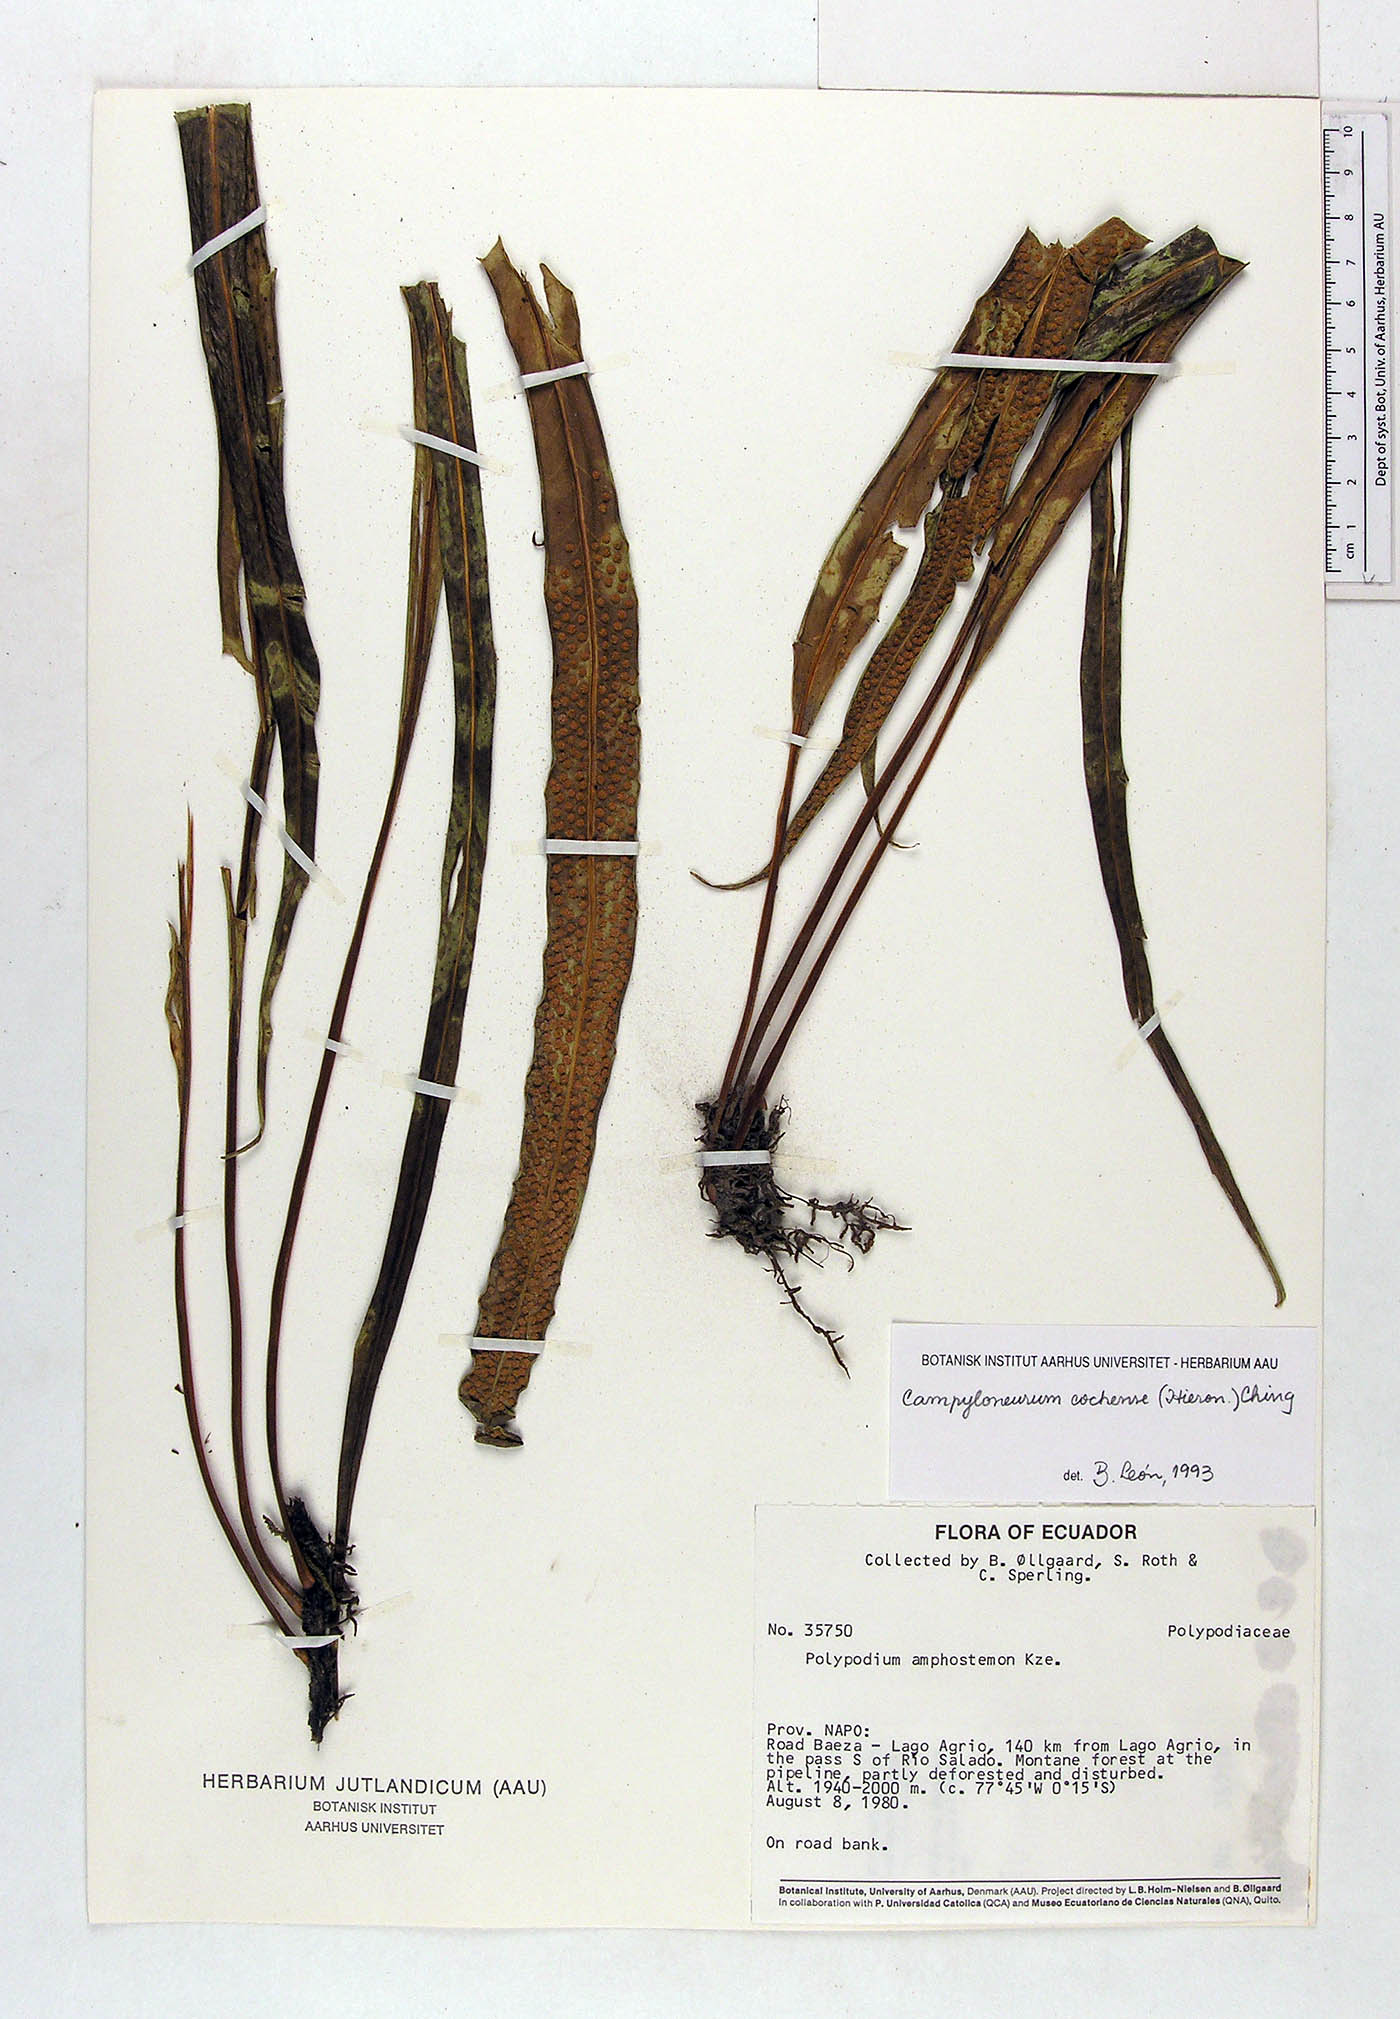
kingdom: Plantae
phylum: Tracheophyta
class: Polypodiopsida
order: Polypodiales
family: Polypodiaceae
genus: Campyloneurum
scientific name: Campyloneurum cochense
